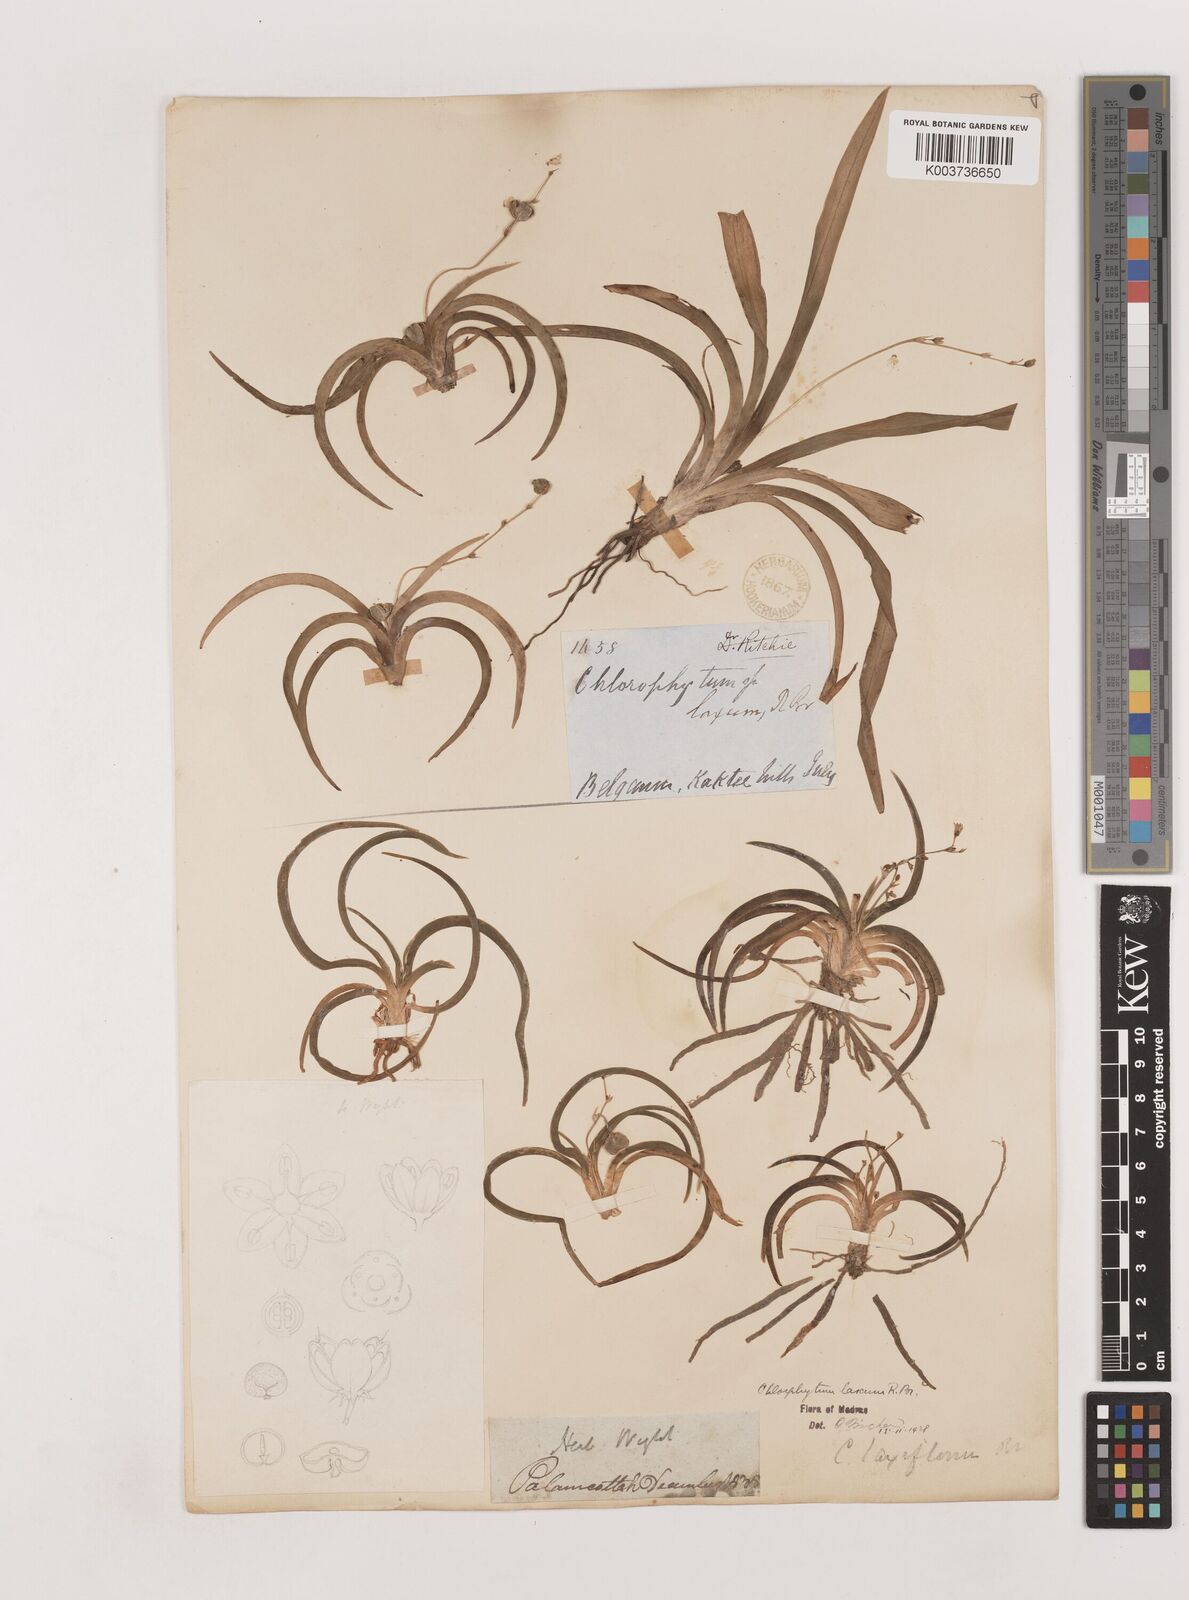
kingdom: Plantae
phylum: Tracheophyta
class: Liliopsida
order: Asparagales
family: Asparagaceae
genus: Chlorophytum
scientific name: Chlorophytum laxum
